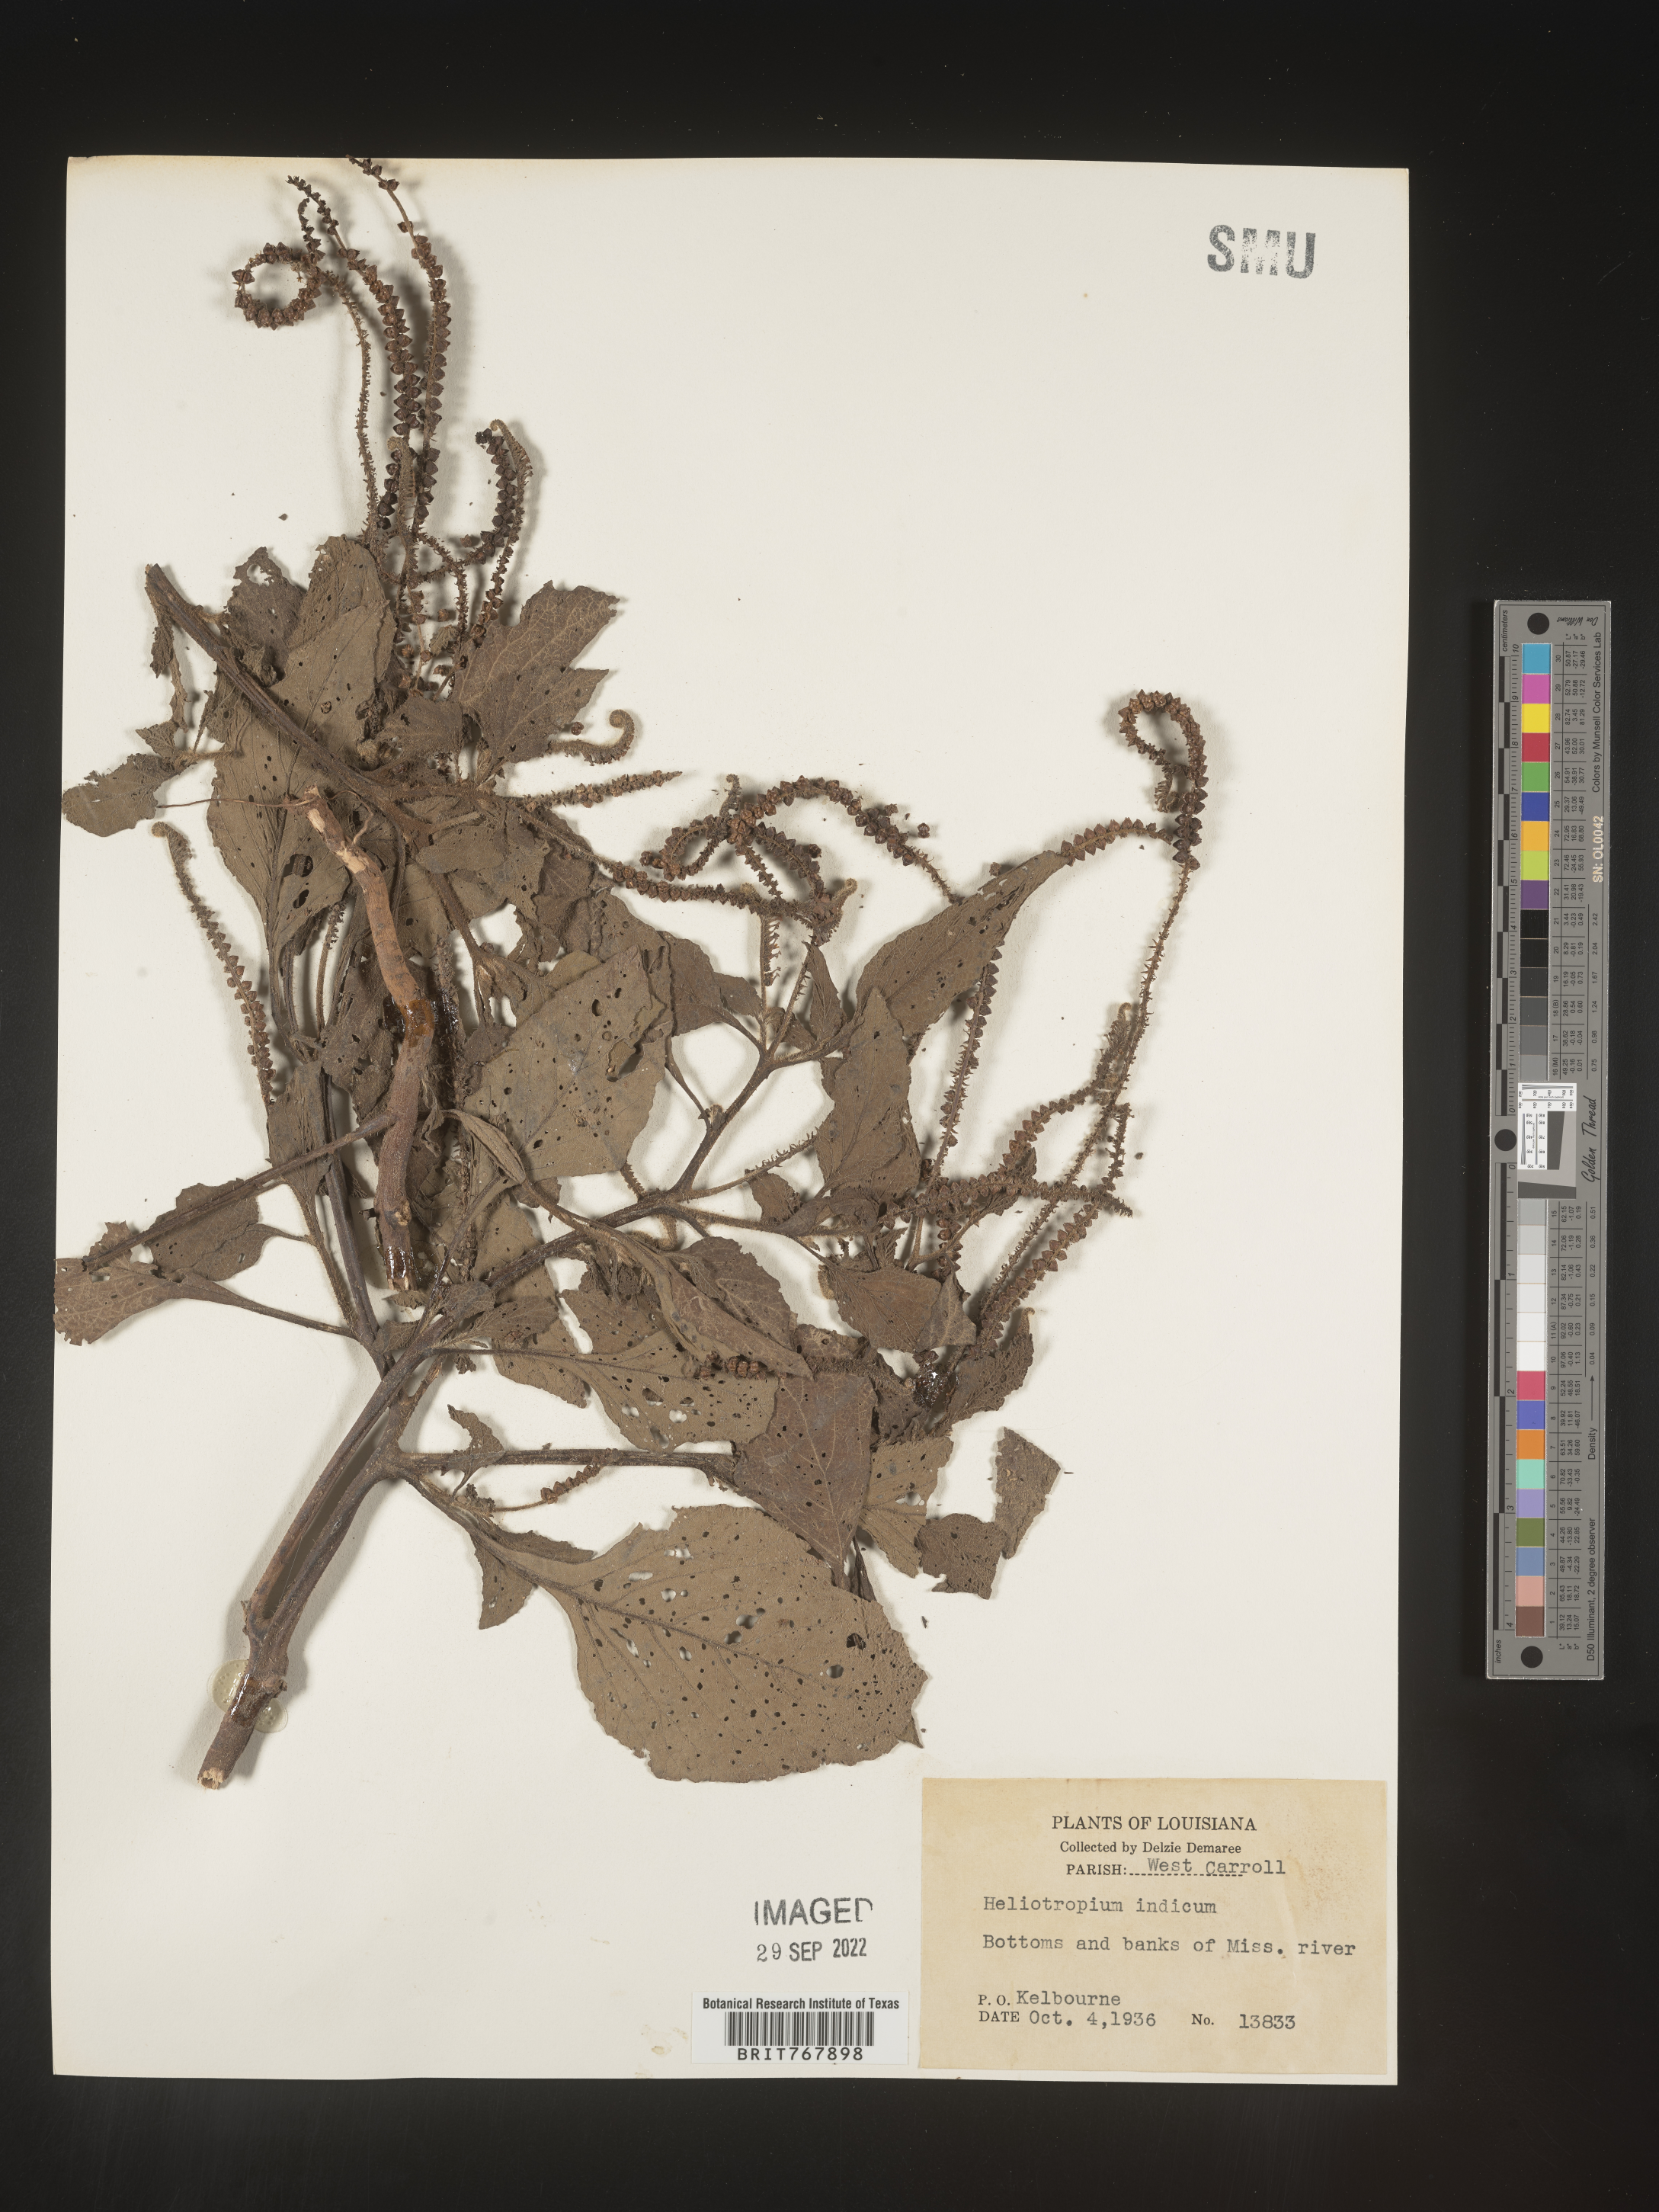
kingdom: Plantae
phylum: Tracheophyta
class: Magnoliopsida
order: Boraginales
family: Heliotropiaceae
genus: Heliotropium
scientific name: Heliotropium indicum
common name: Indian heliotrope
